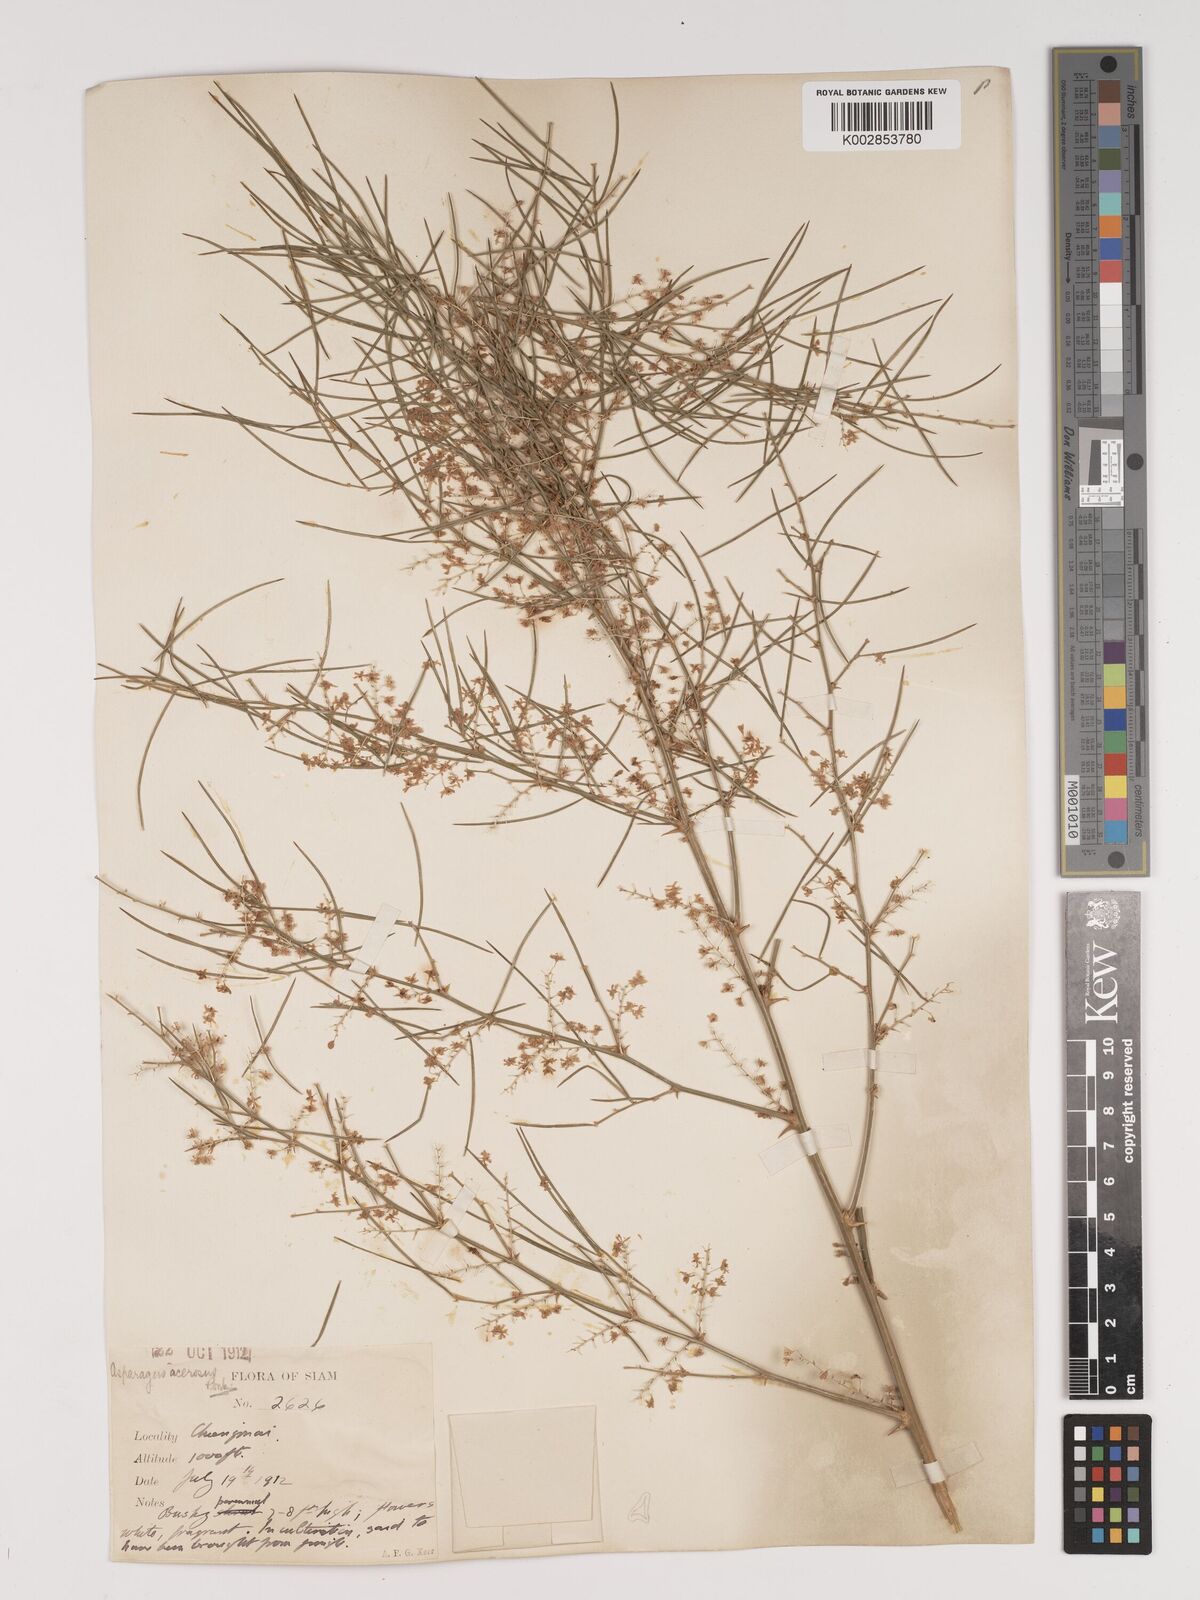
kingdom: Plantae
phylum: Tracheophyta
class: Liliopsida
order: Asparagales
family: Asparagaceae
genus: Asparagus
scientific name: Asparagus racemosus
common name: Asparagus-fern
